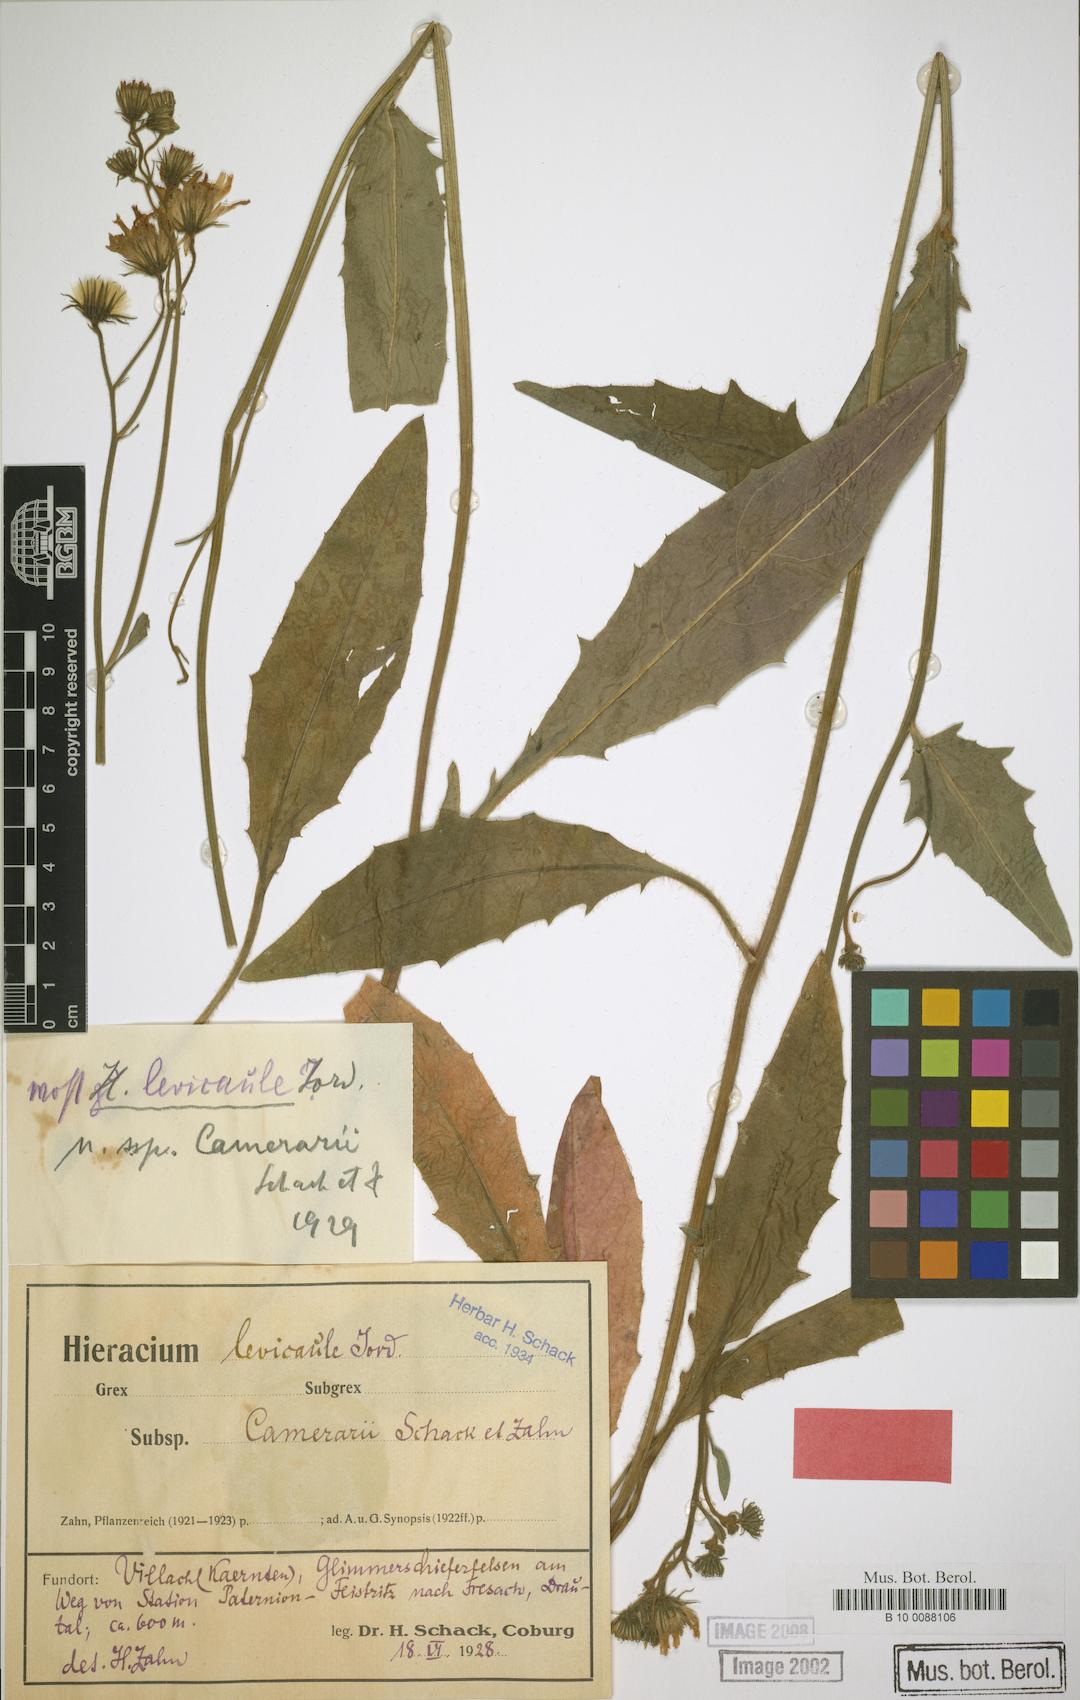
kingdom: Plantae
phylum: Tracheophyta
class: Magnoliopsida
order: Asterales
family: Asteraceae
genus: Hieracium
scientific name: Hieracium levicaule
